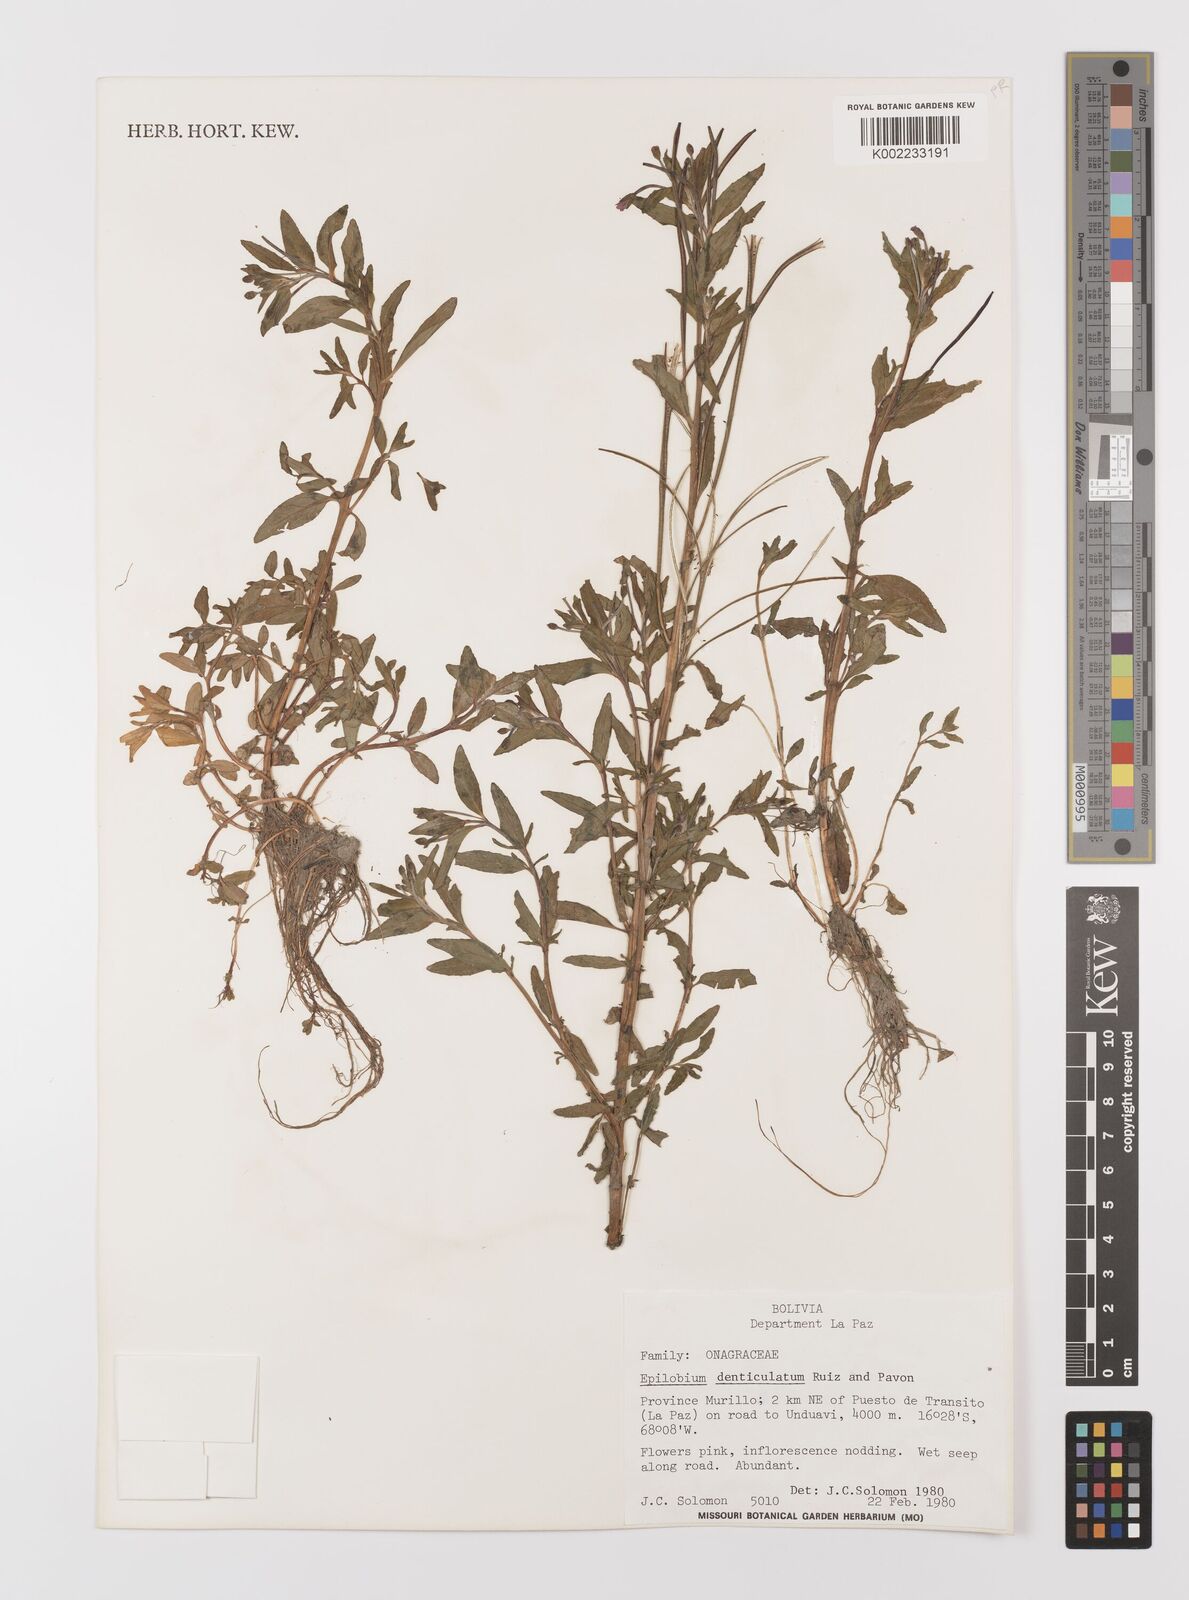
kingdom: Plantae
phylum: Tracheophyta
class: Magnoliopsida
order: Myrtales
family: Onagraceae
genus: Epilobium
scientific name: Epilobium denticulatum
